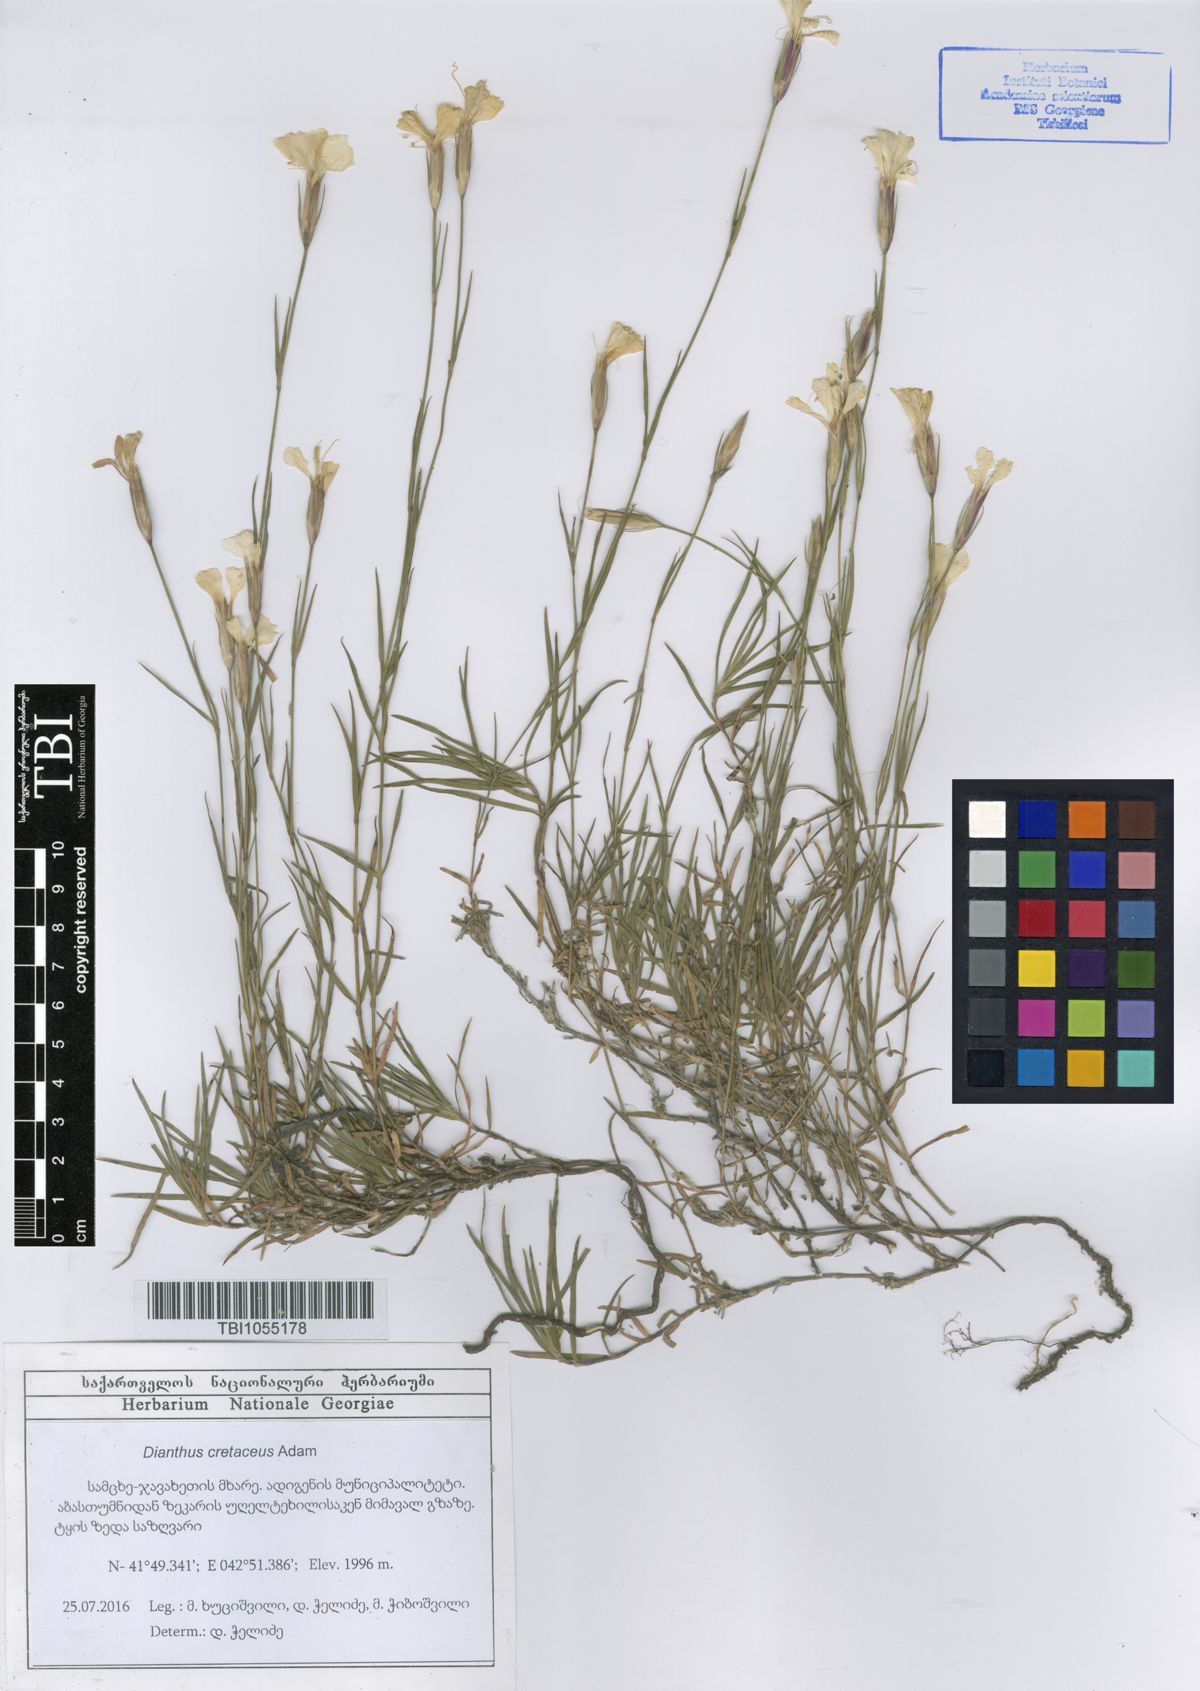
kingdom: Plantae
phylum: Tracheophyta
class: Magnoliopsida
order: Caryophyllales
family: Caryophyllaceae
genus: Dianthus
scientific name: Dianthus cretaceus
